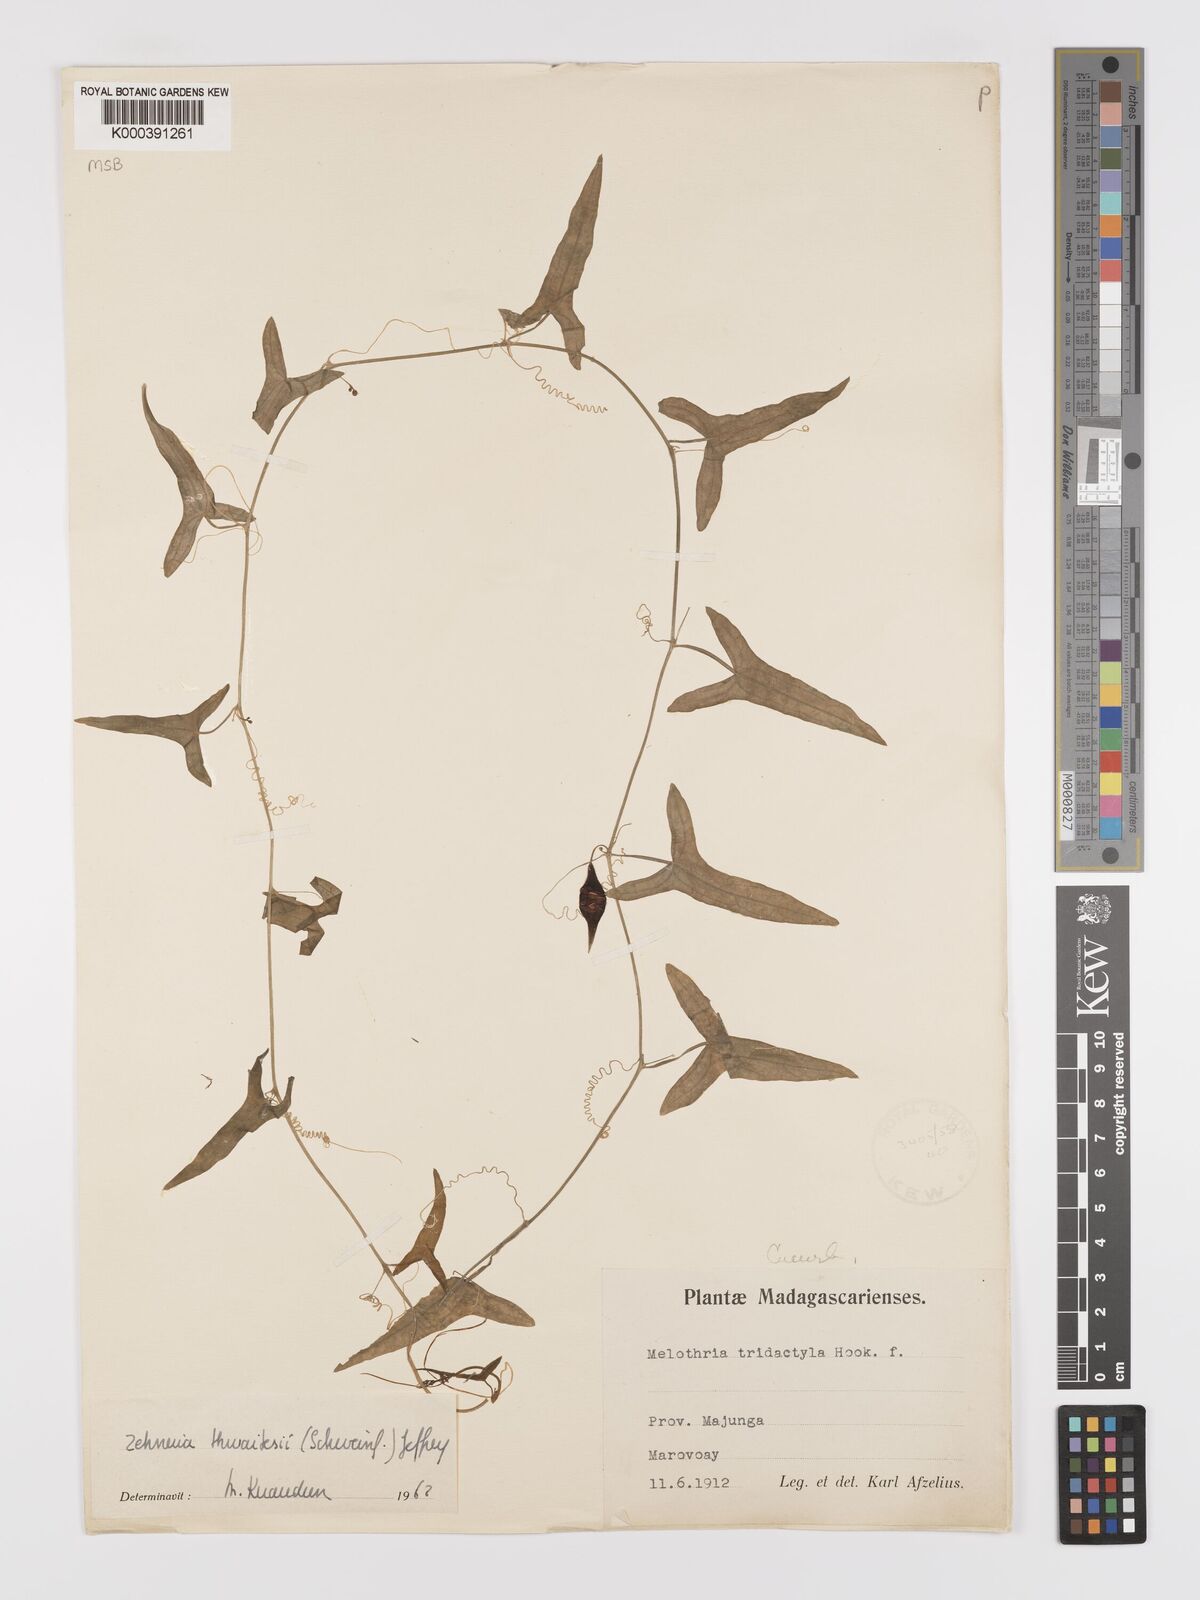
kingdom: Plantae
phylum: Tracheophyta
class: Magnoliopsida
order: Cucurbitales
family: Cucurbitaceae
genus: Zehneria
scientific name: Zehneria thwaitesii
